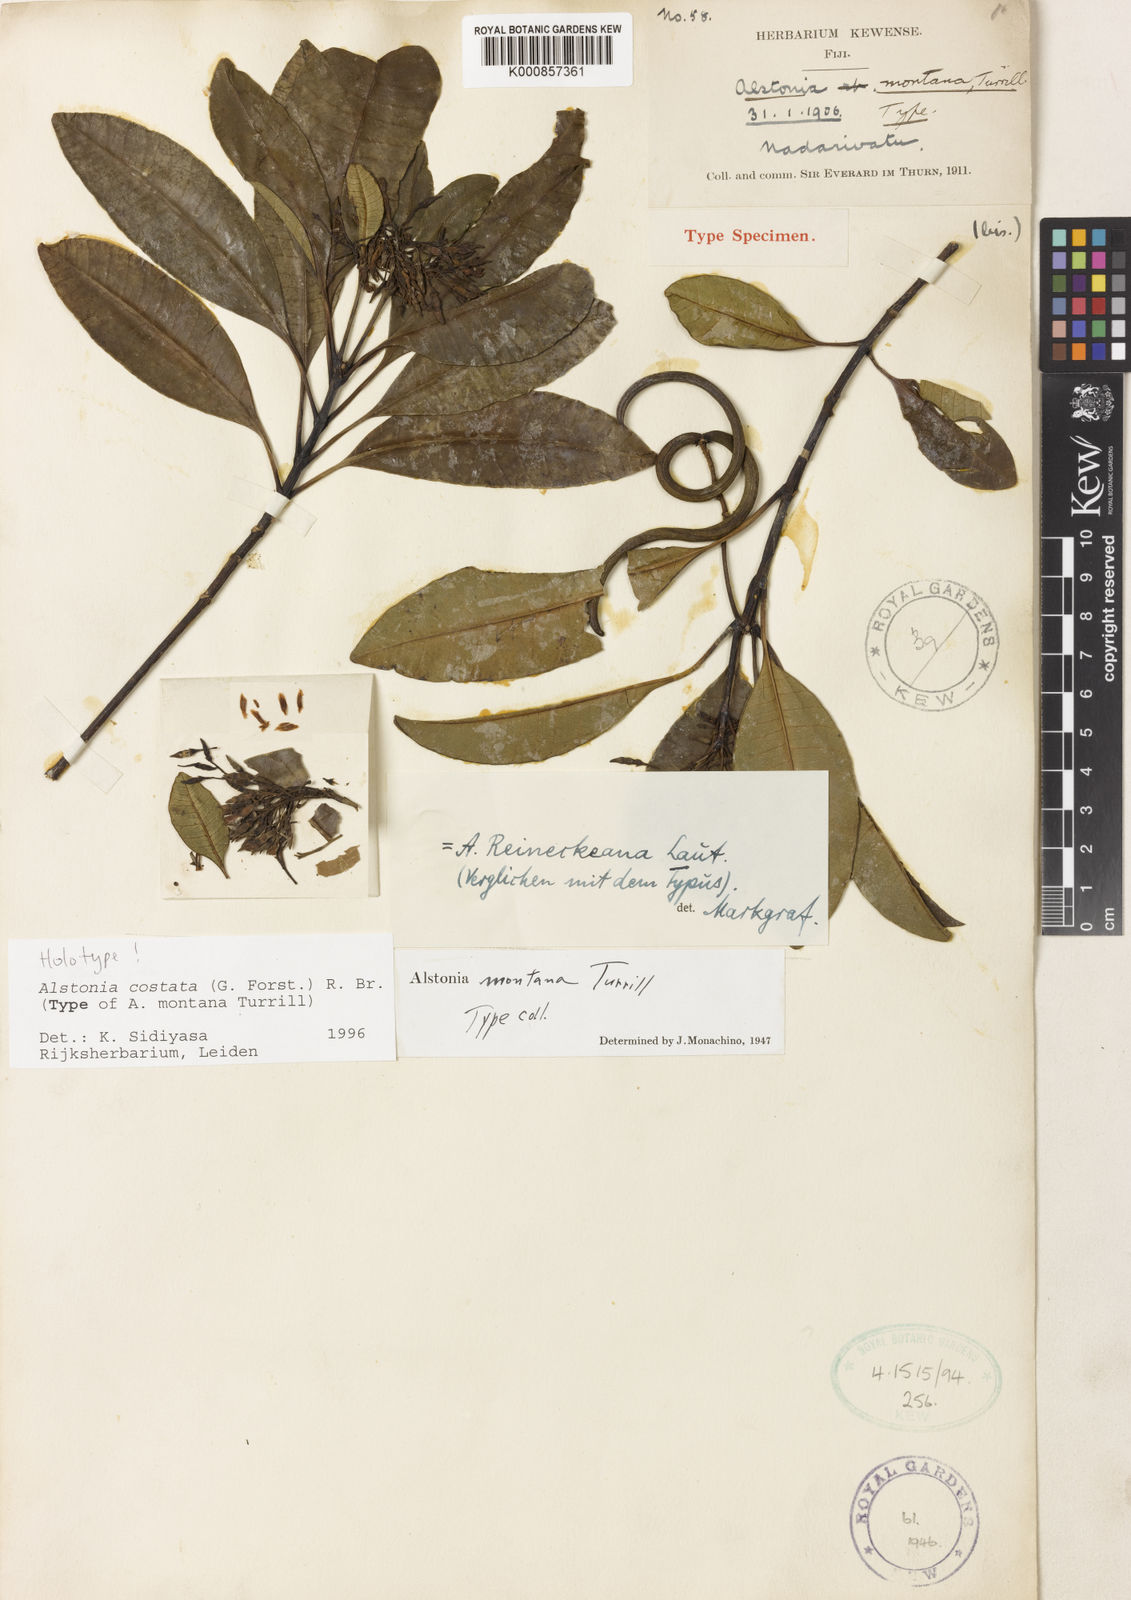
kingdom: Plantae
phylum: Tracheophyta
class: Magnoliopsida
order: Gentianales
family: Apocynaceae
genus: Alstonia
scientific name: Alstonia costata
